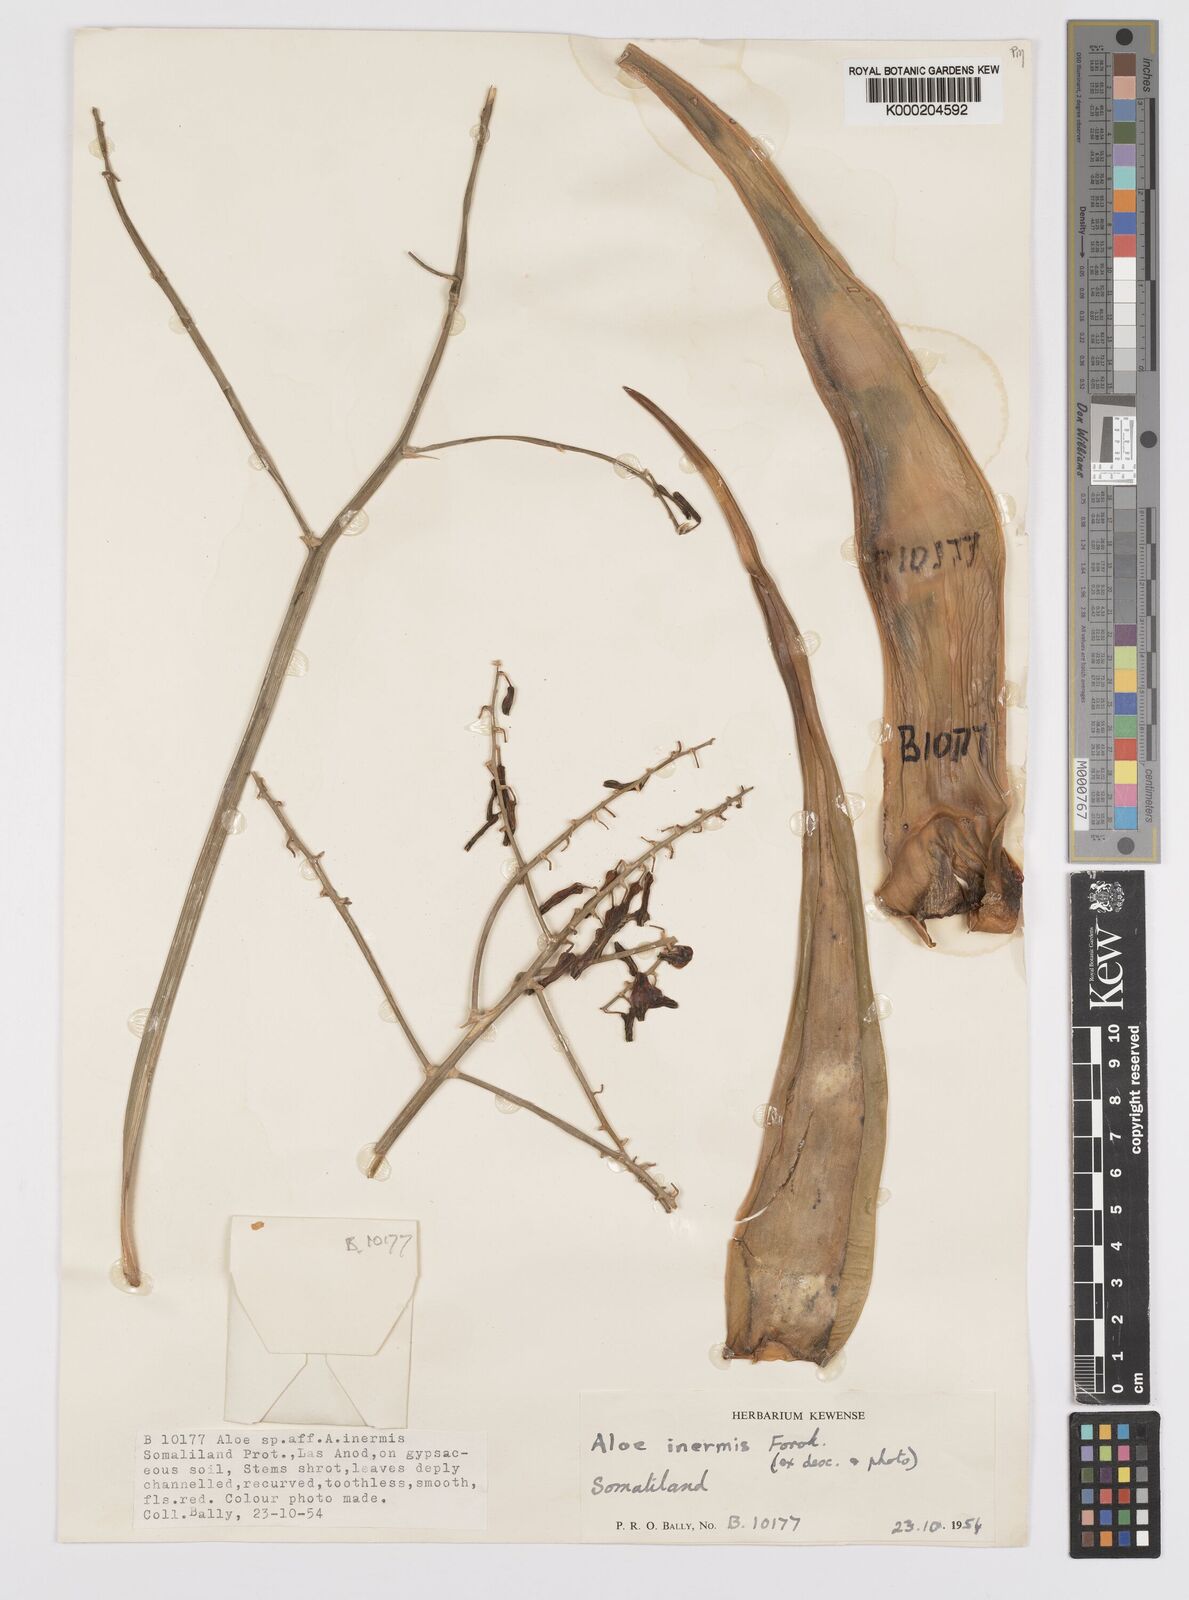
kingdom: Plantae
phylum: Tracheophyta
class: Liliopsida
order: Asparagales
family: Asphodelaceae
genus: Aloe
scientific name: Aloe luntii
